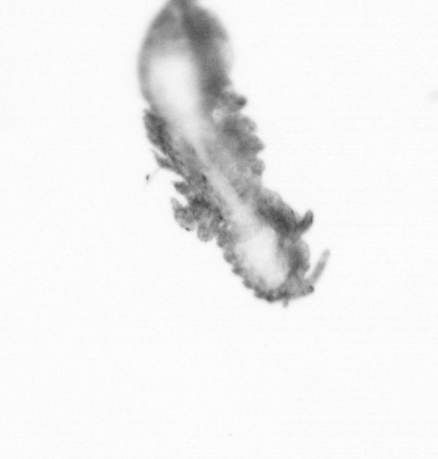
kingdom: Animalia
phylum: Annelida
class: Polychaeta
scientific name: Polychaeta
